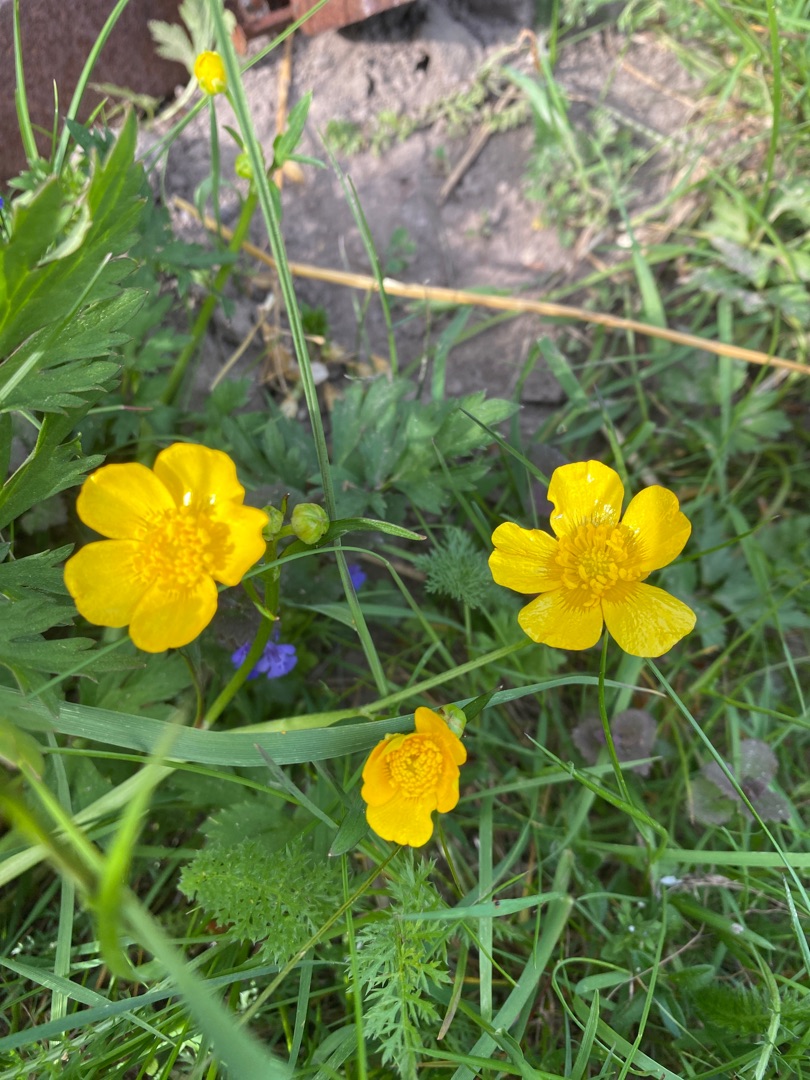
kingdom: Plantae
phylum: Tracheophyta
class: Magnoliopsida
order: Ranunculales
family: Ranunculaceae
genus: Ranunculus
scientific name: Ranunculus repens
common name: Lav ranunkel
